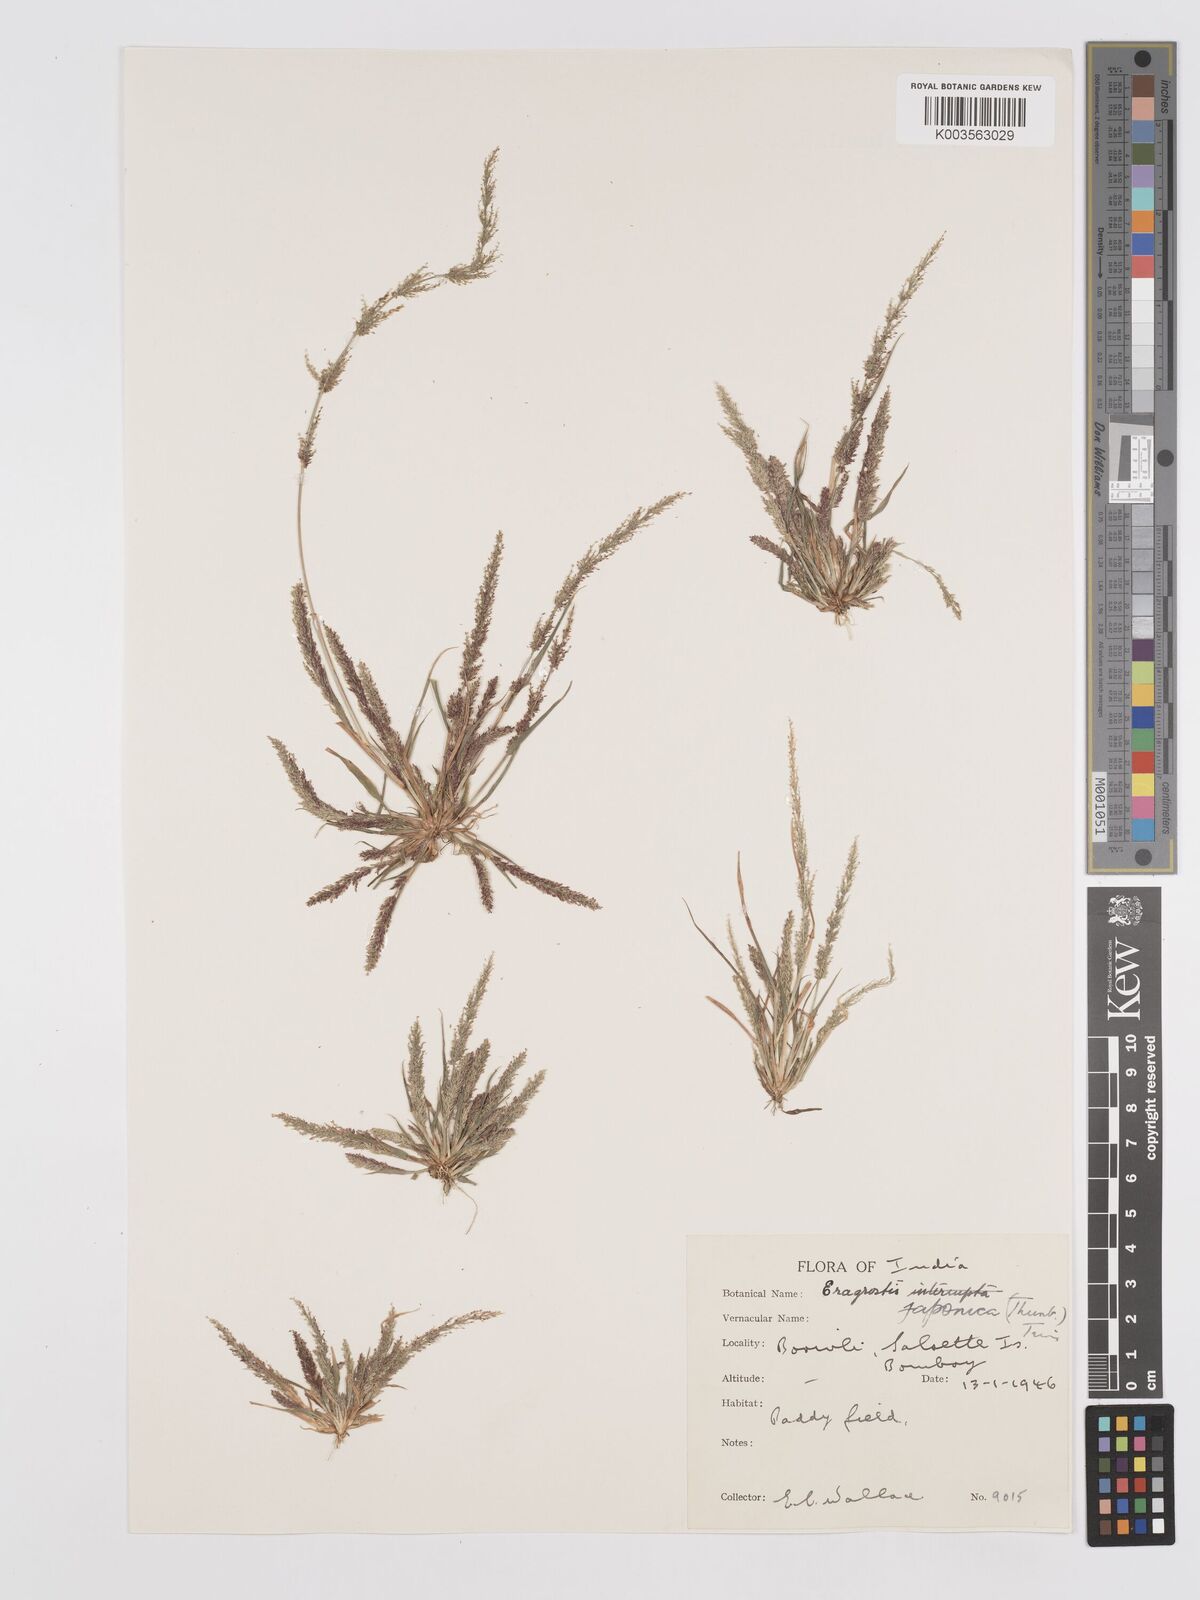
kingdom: Plantae
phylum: Tracheophyta
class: Liliopsida
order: Poales
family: Poaceae
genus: Eragrostis
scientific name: Eragrostis japonica
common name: Pond lovegrass
